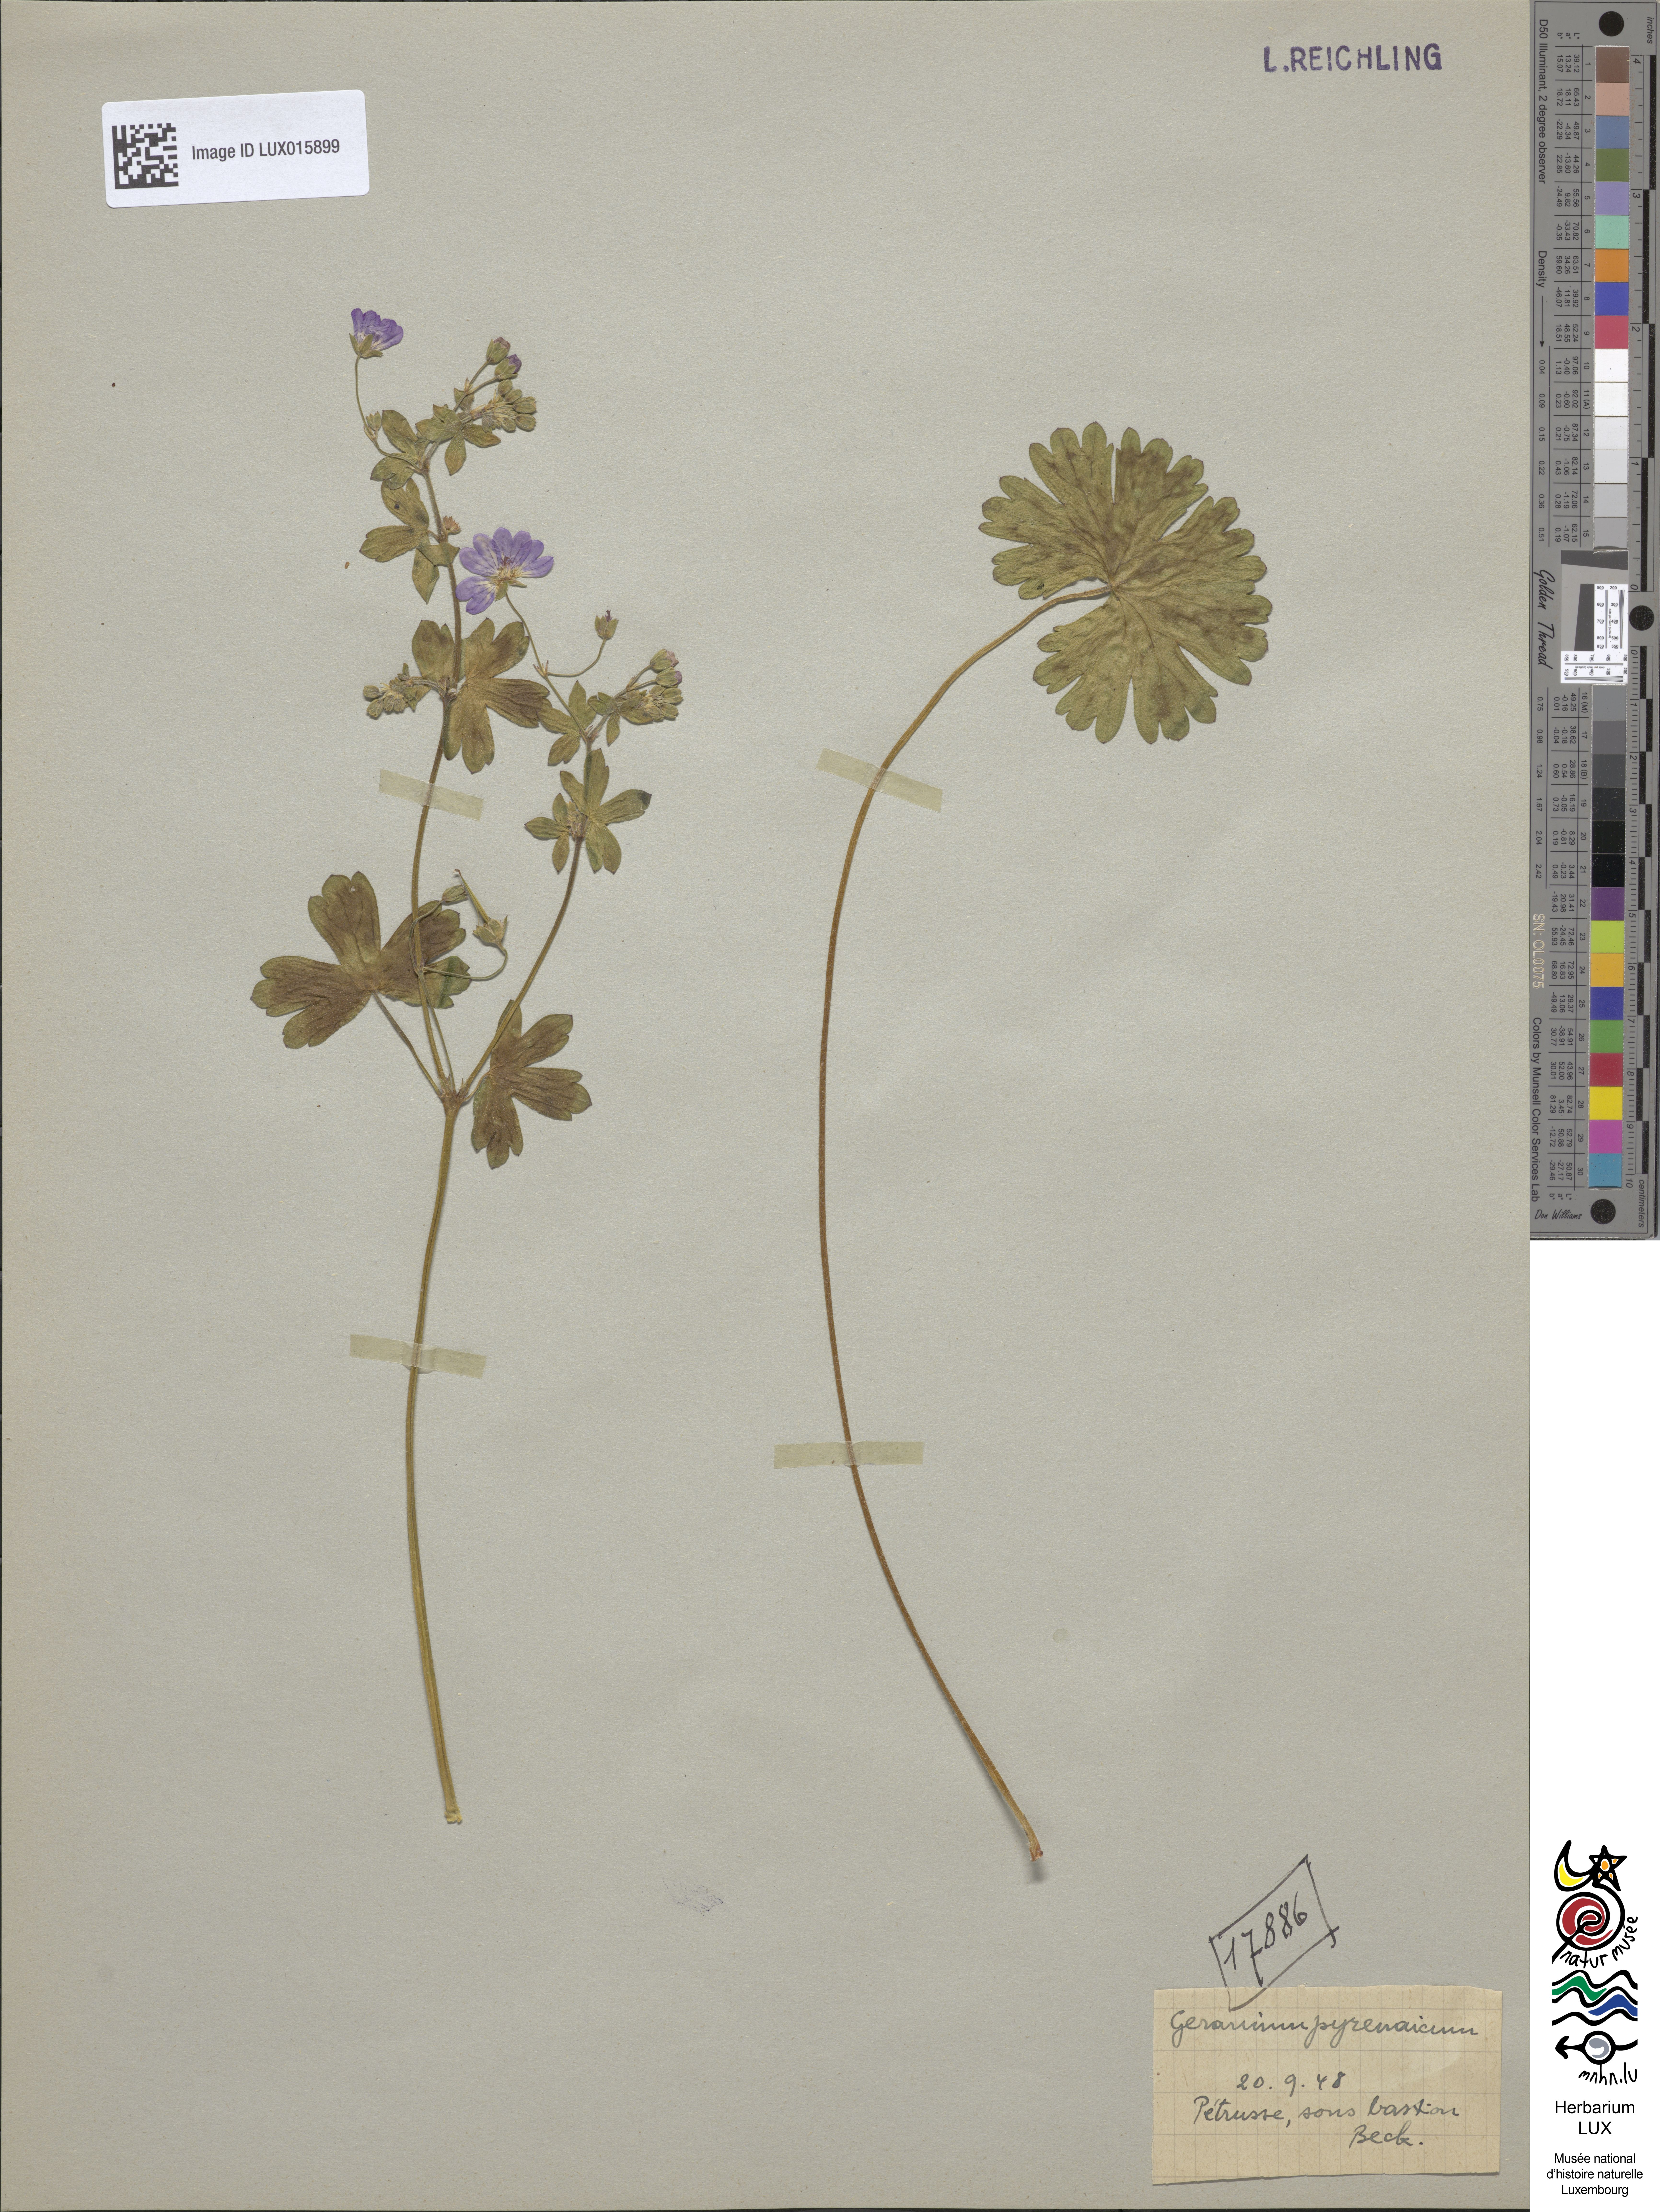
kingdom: Plantae
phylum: Tracheophyta
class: Magnoliopsida
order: Geraniales
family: Geraniaceae
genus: Geranium
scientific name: Geranium pyrenaicum
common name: Hedgerow crane's-bill
